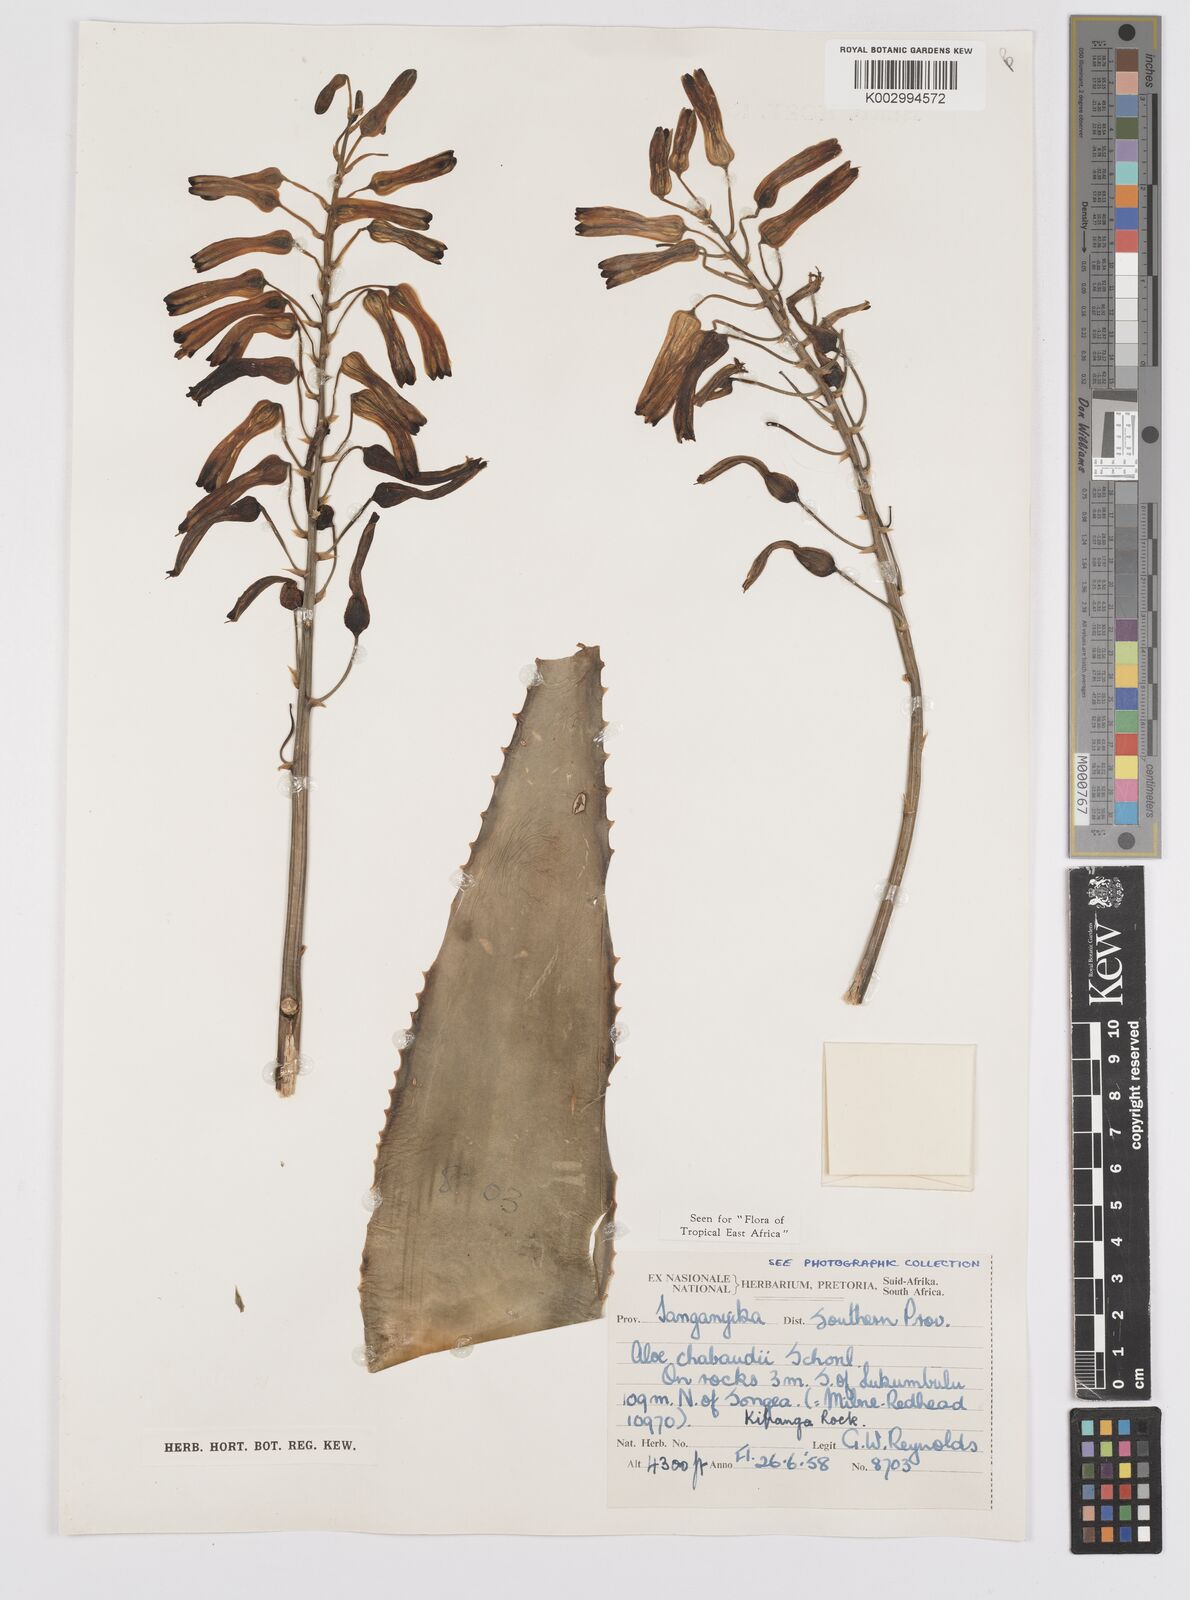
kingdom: Plantae
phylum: Tracheophyta
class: Liliopsida
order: Asparagales
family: Asphodelaceae
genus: Aloe
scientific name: Aloe chabaudii
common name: Chabaud's aloe
